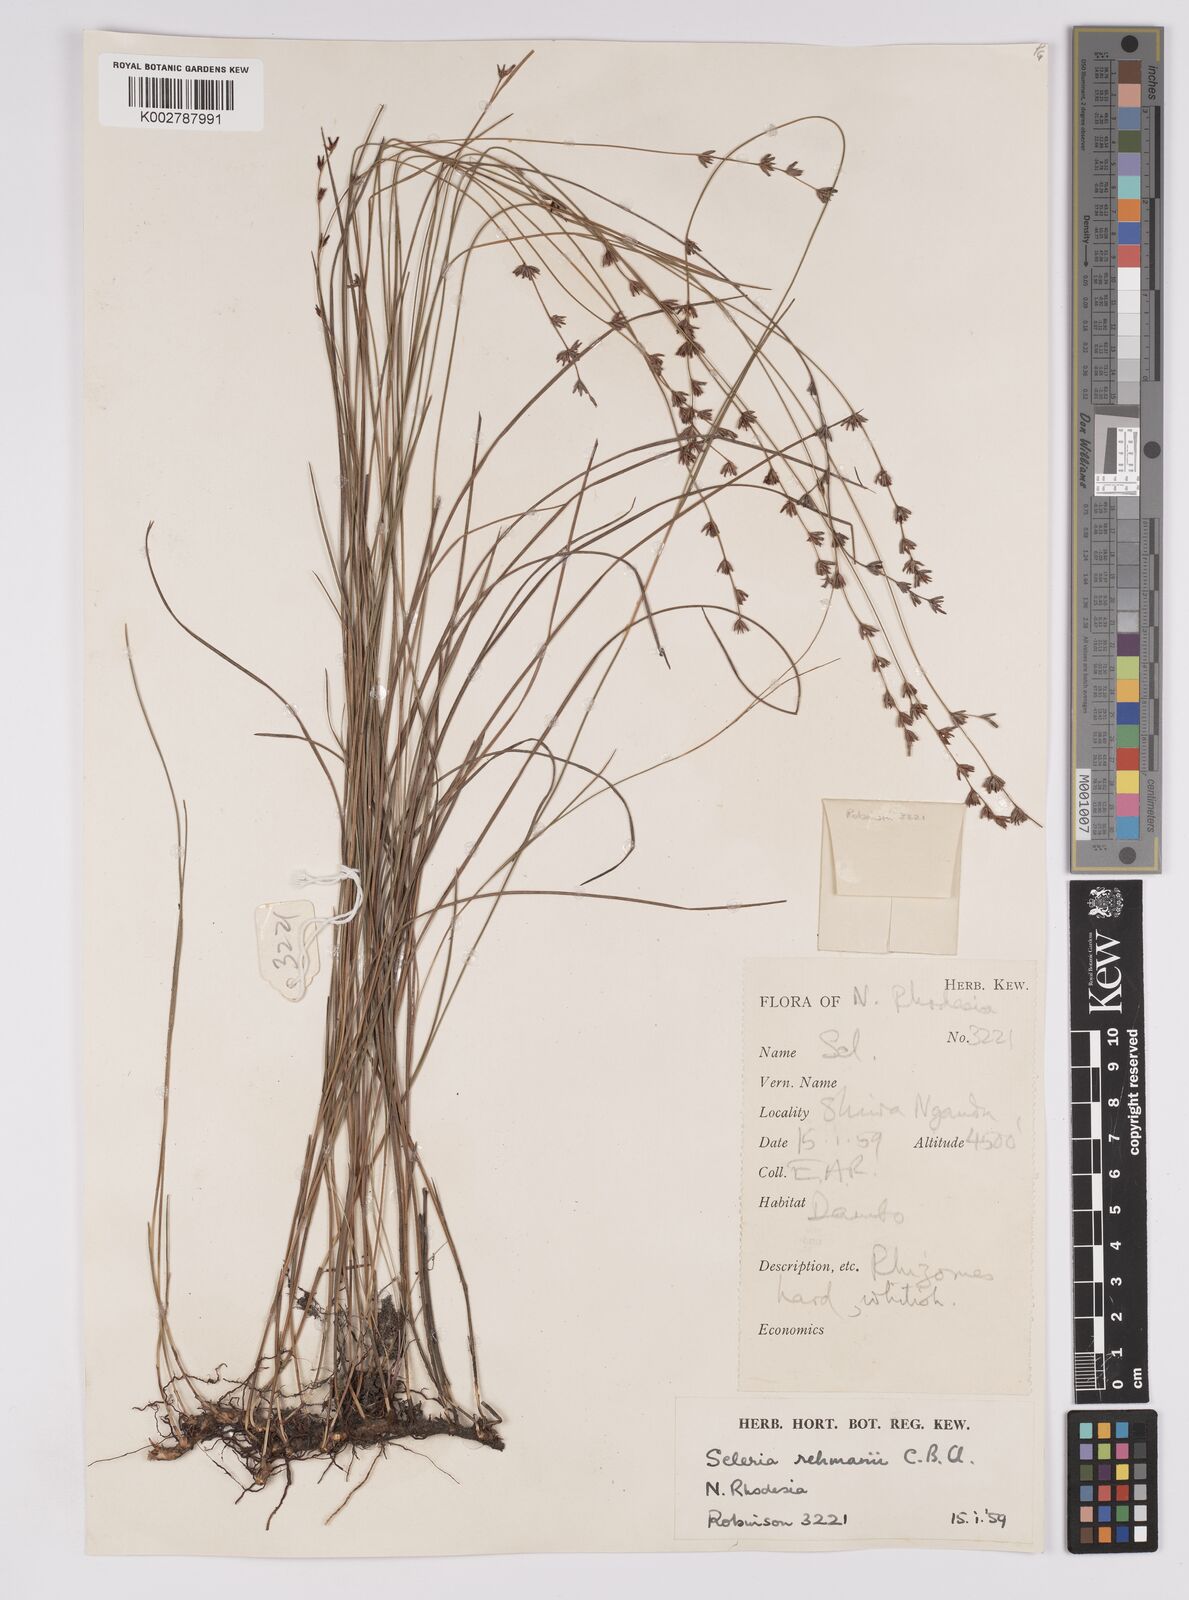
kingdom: Plantae
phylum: Tracheophyta
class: Liliopsida
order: Poales
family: Cyperaceae
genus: Scleria
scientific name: Scleria rehmannii
